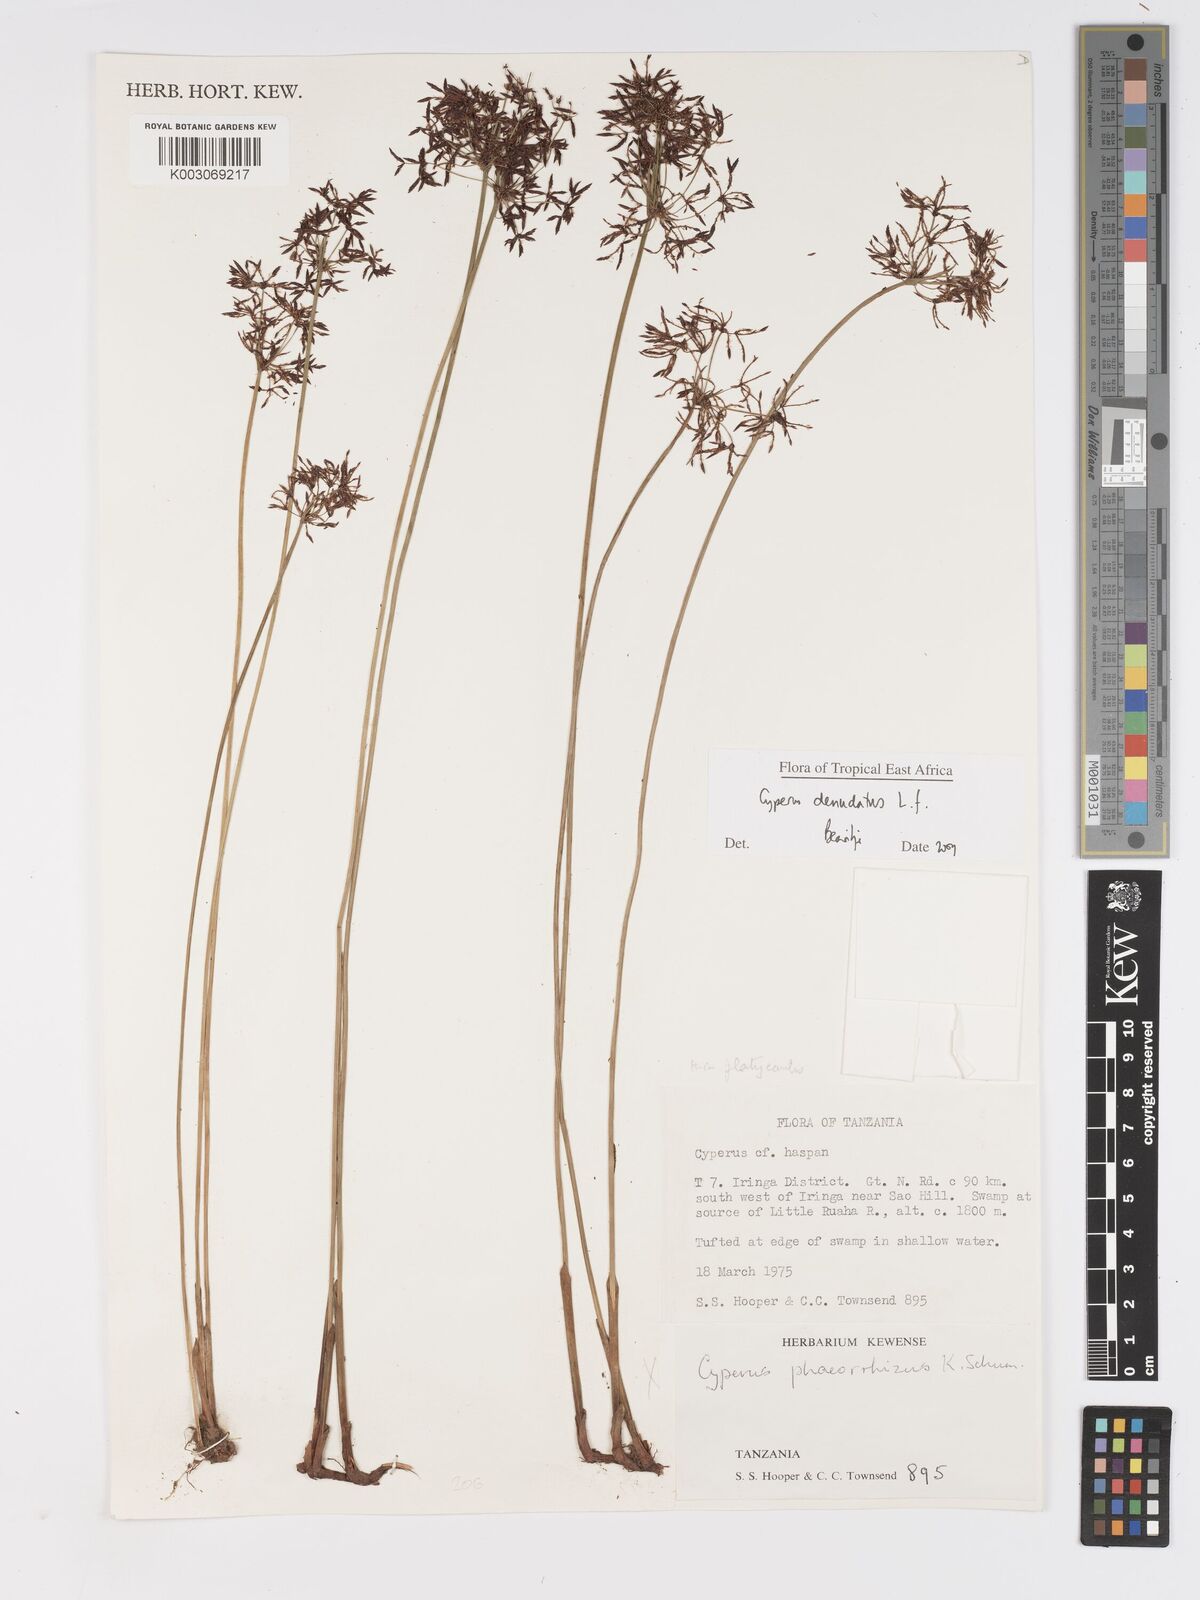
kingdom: Plantae
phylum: Tracheophyta
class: Liliopsida
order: Poales
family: Cyperaceae
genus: Cyperus
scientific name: Cyperus denudatus
